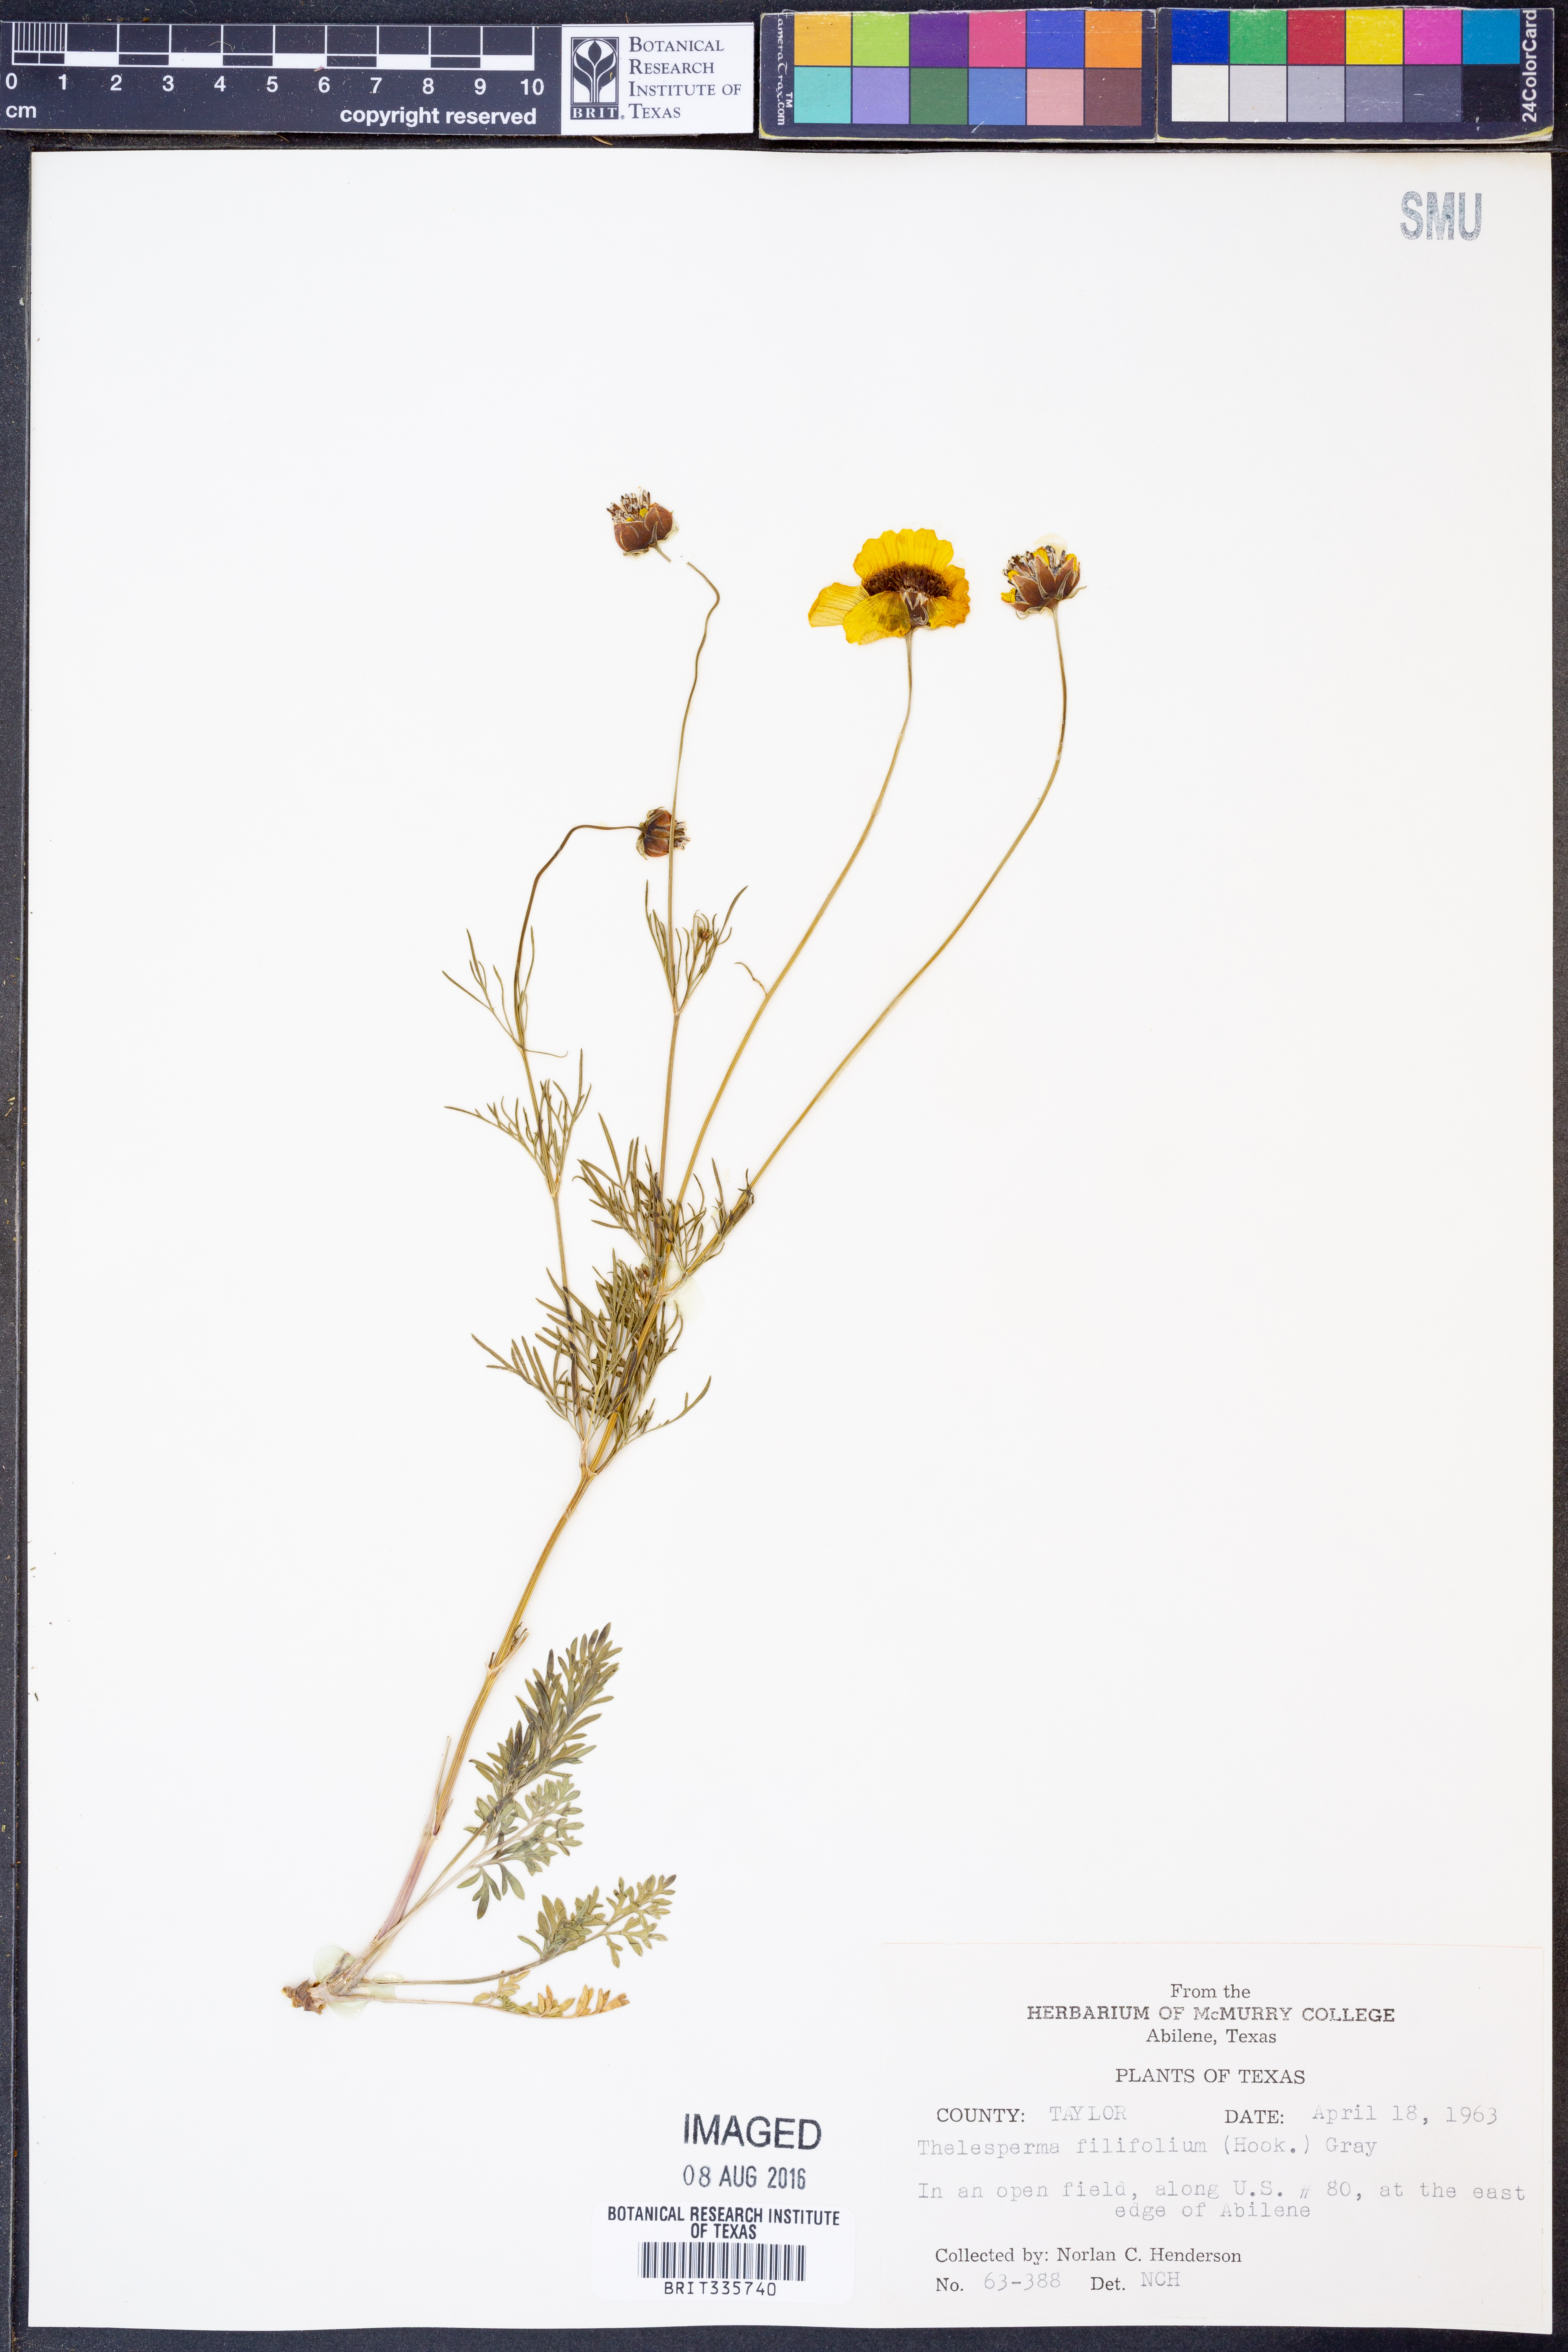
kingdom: Plantae
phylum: Tracheophyta
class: Magnoliopsida
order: Asterales
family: Asteraceae
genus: Thelesperma
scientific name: Thelesperma filifolium
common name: Stiff greenthread
